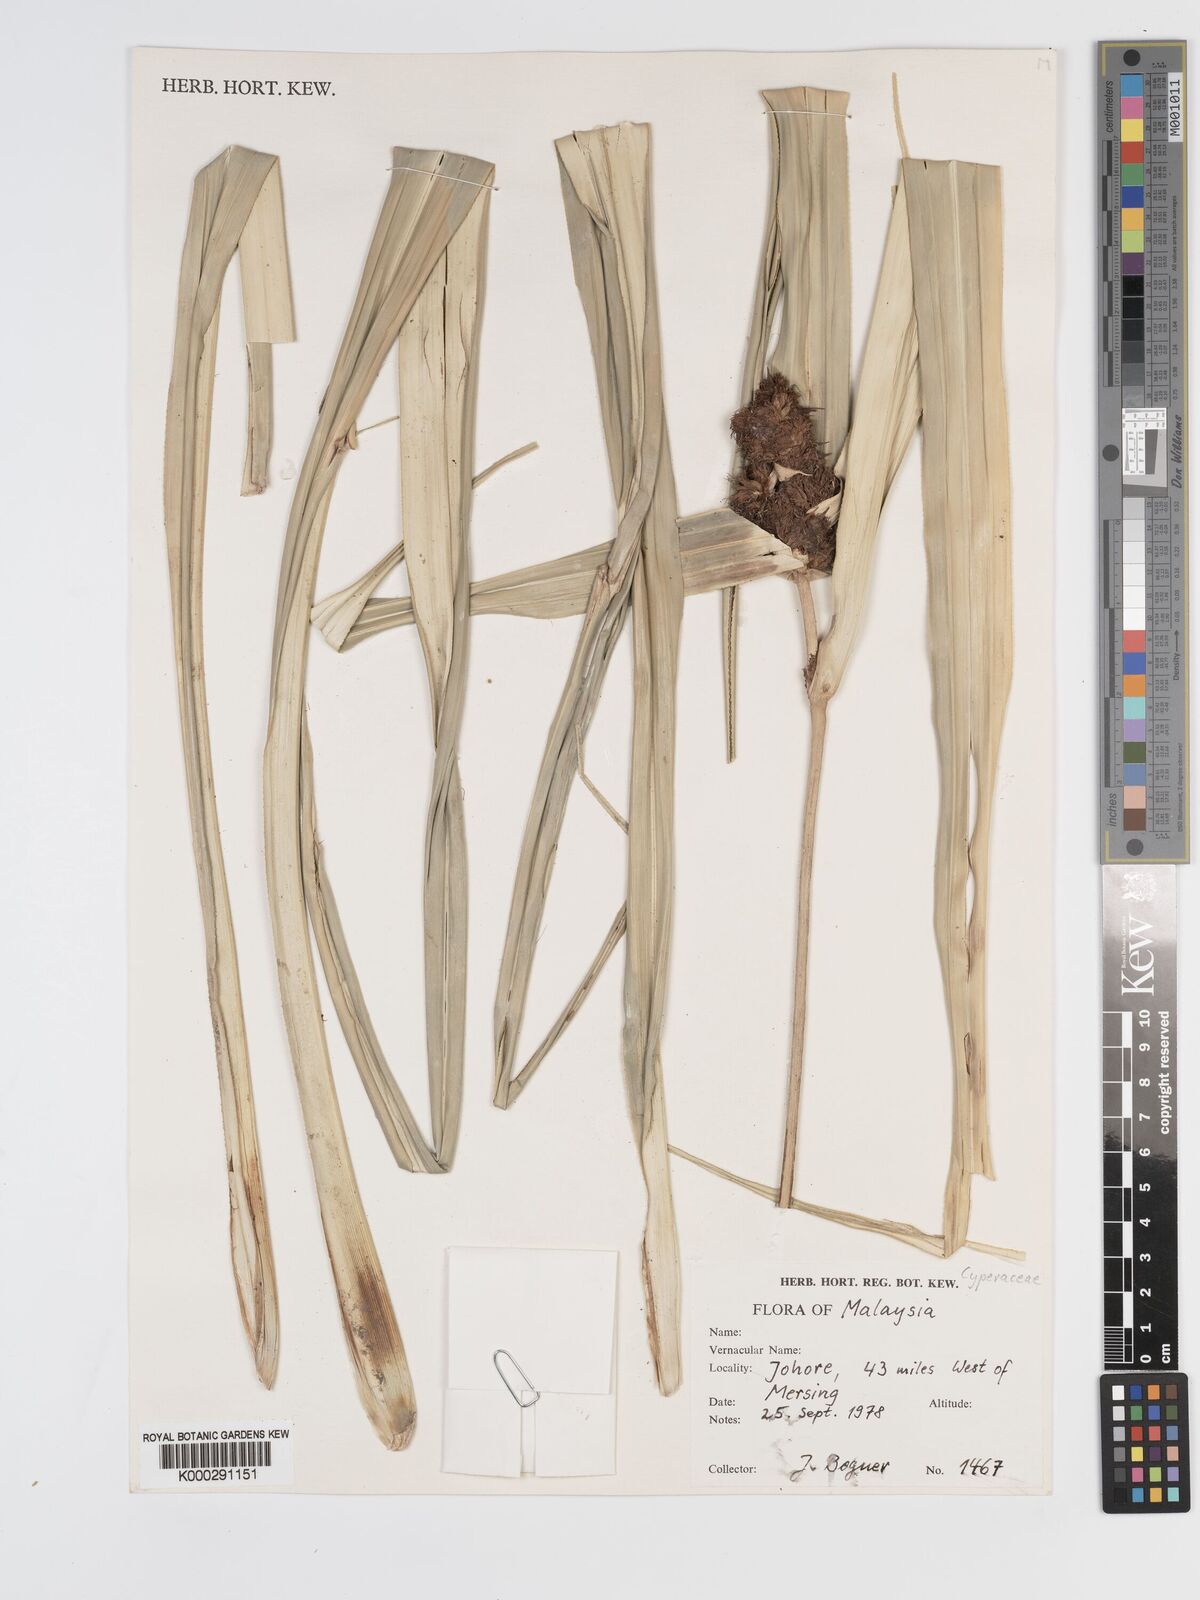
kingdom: Plantae
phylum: Tracheophyta
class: Liliopsida
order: Poales
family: Cyperaceae
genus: Scirpodendron
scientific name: Scirpodendron bogneri
